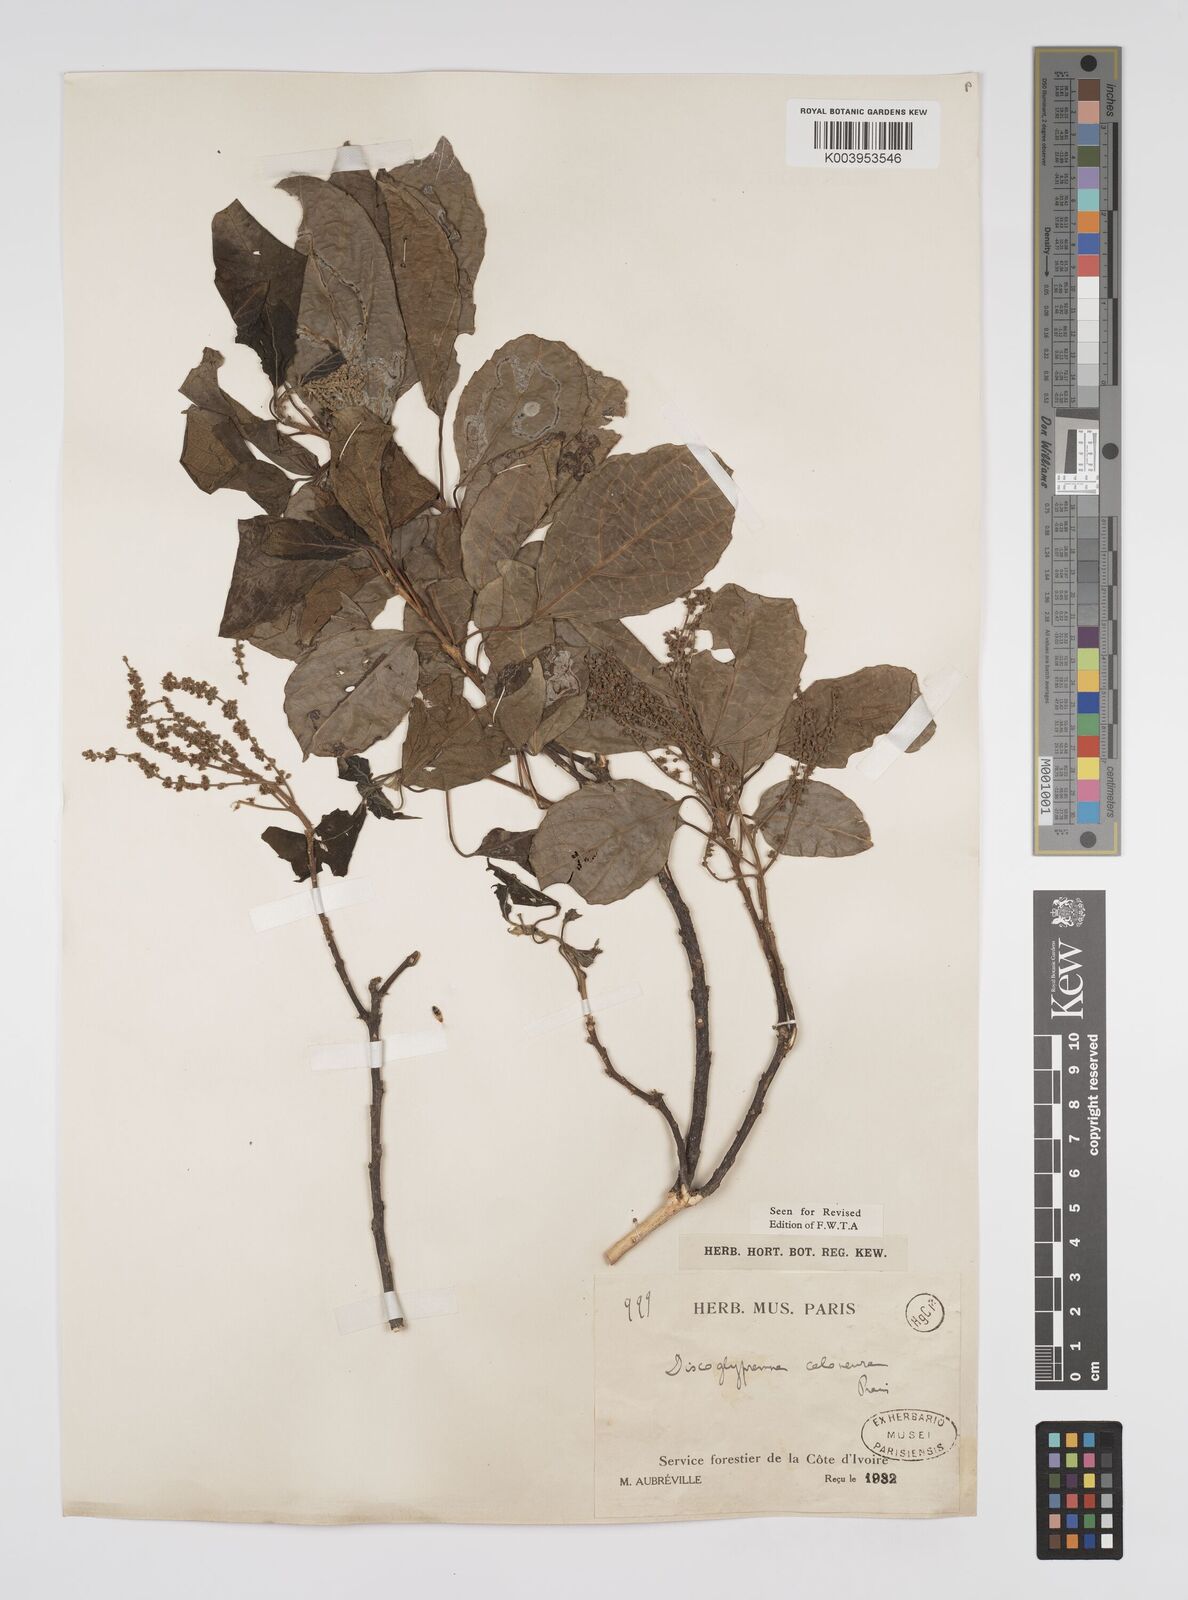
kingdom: Plantae
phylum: Tracheophyta
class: Magnoliopsida
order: Malpighiales
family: Euphorbiaceae
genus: Discoglypremna
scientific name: Discoglypremna caloneura
